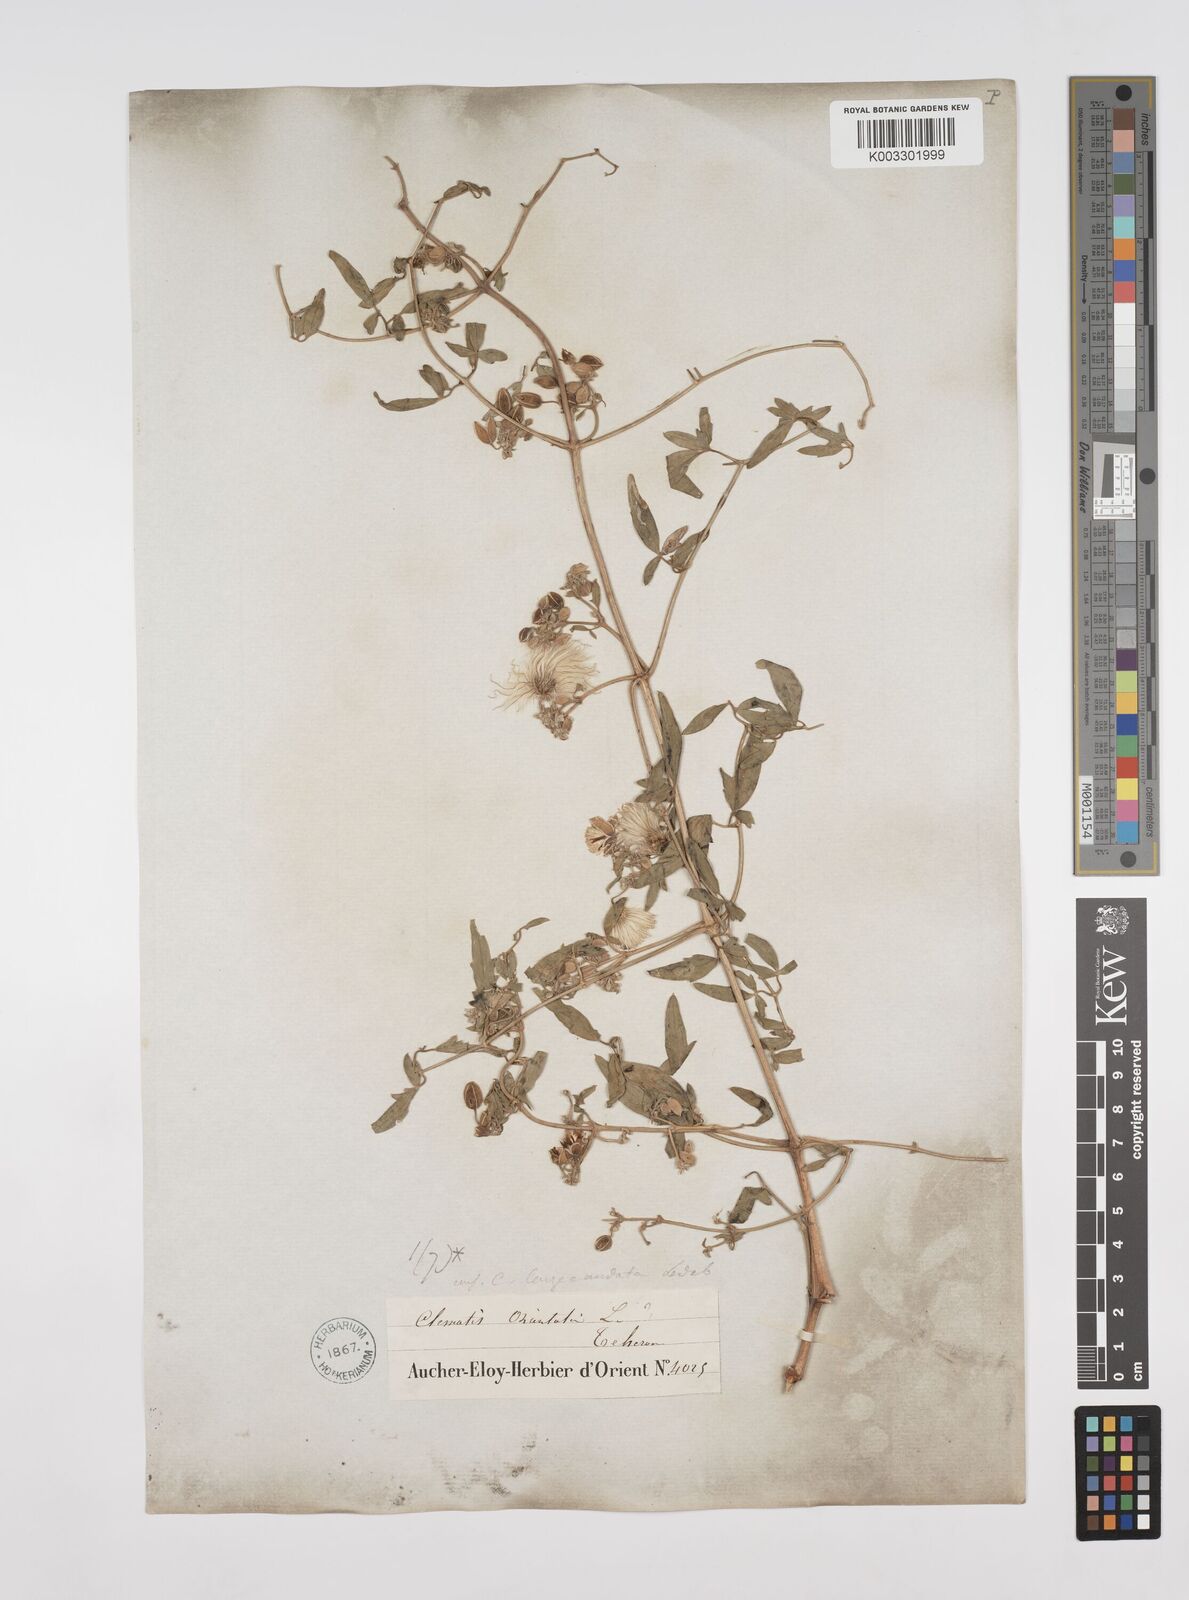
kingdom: Plantae
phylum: Tracheophyta
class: Magnoliopsida
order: Ranunculales
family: Ranunculaceae
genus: Clematis
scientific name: Clematis orientalis
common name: Oriental virgin's-bower
